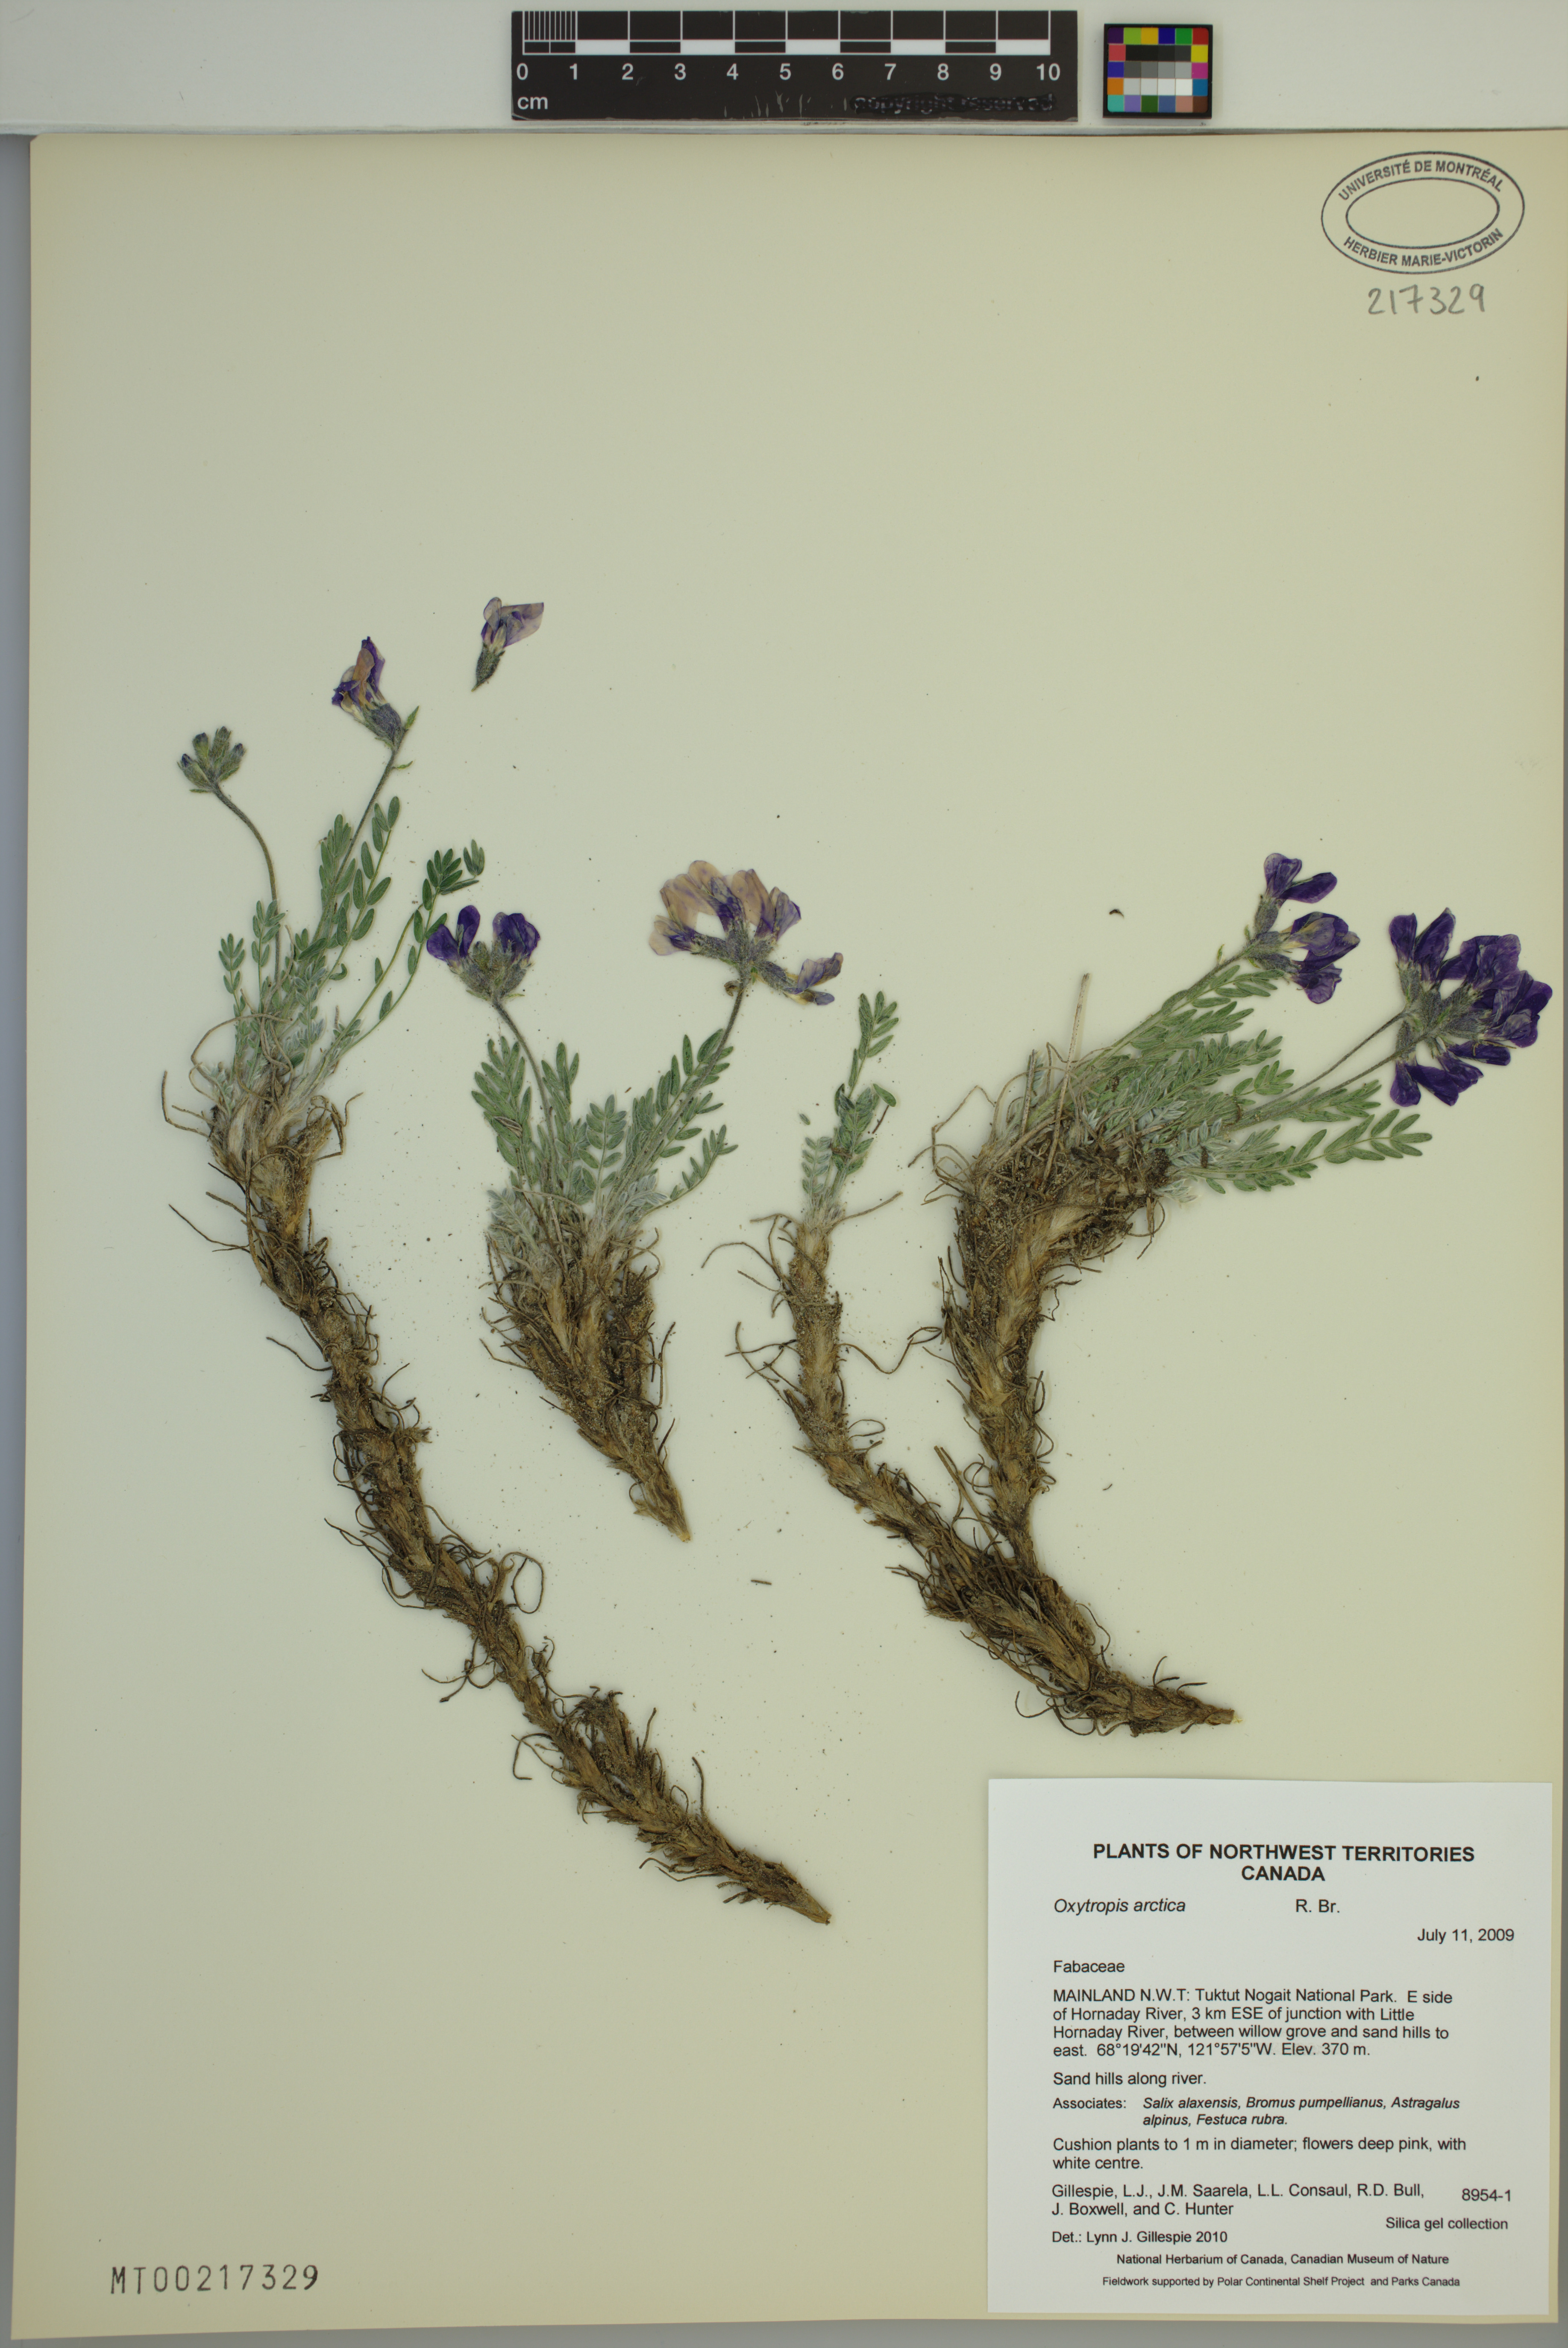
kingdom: Plantae
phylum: Tracheophyta
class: Magnoliopsida
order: Fabales
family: Fabaceae
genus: Oxytropis
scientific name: Oxytropis arctica
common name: Arctic locoweed
